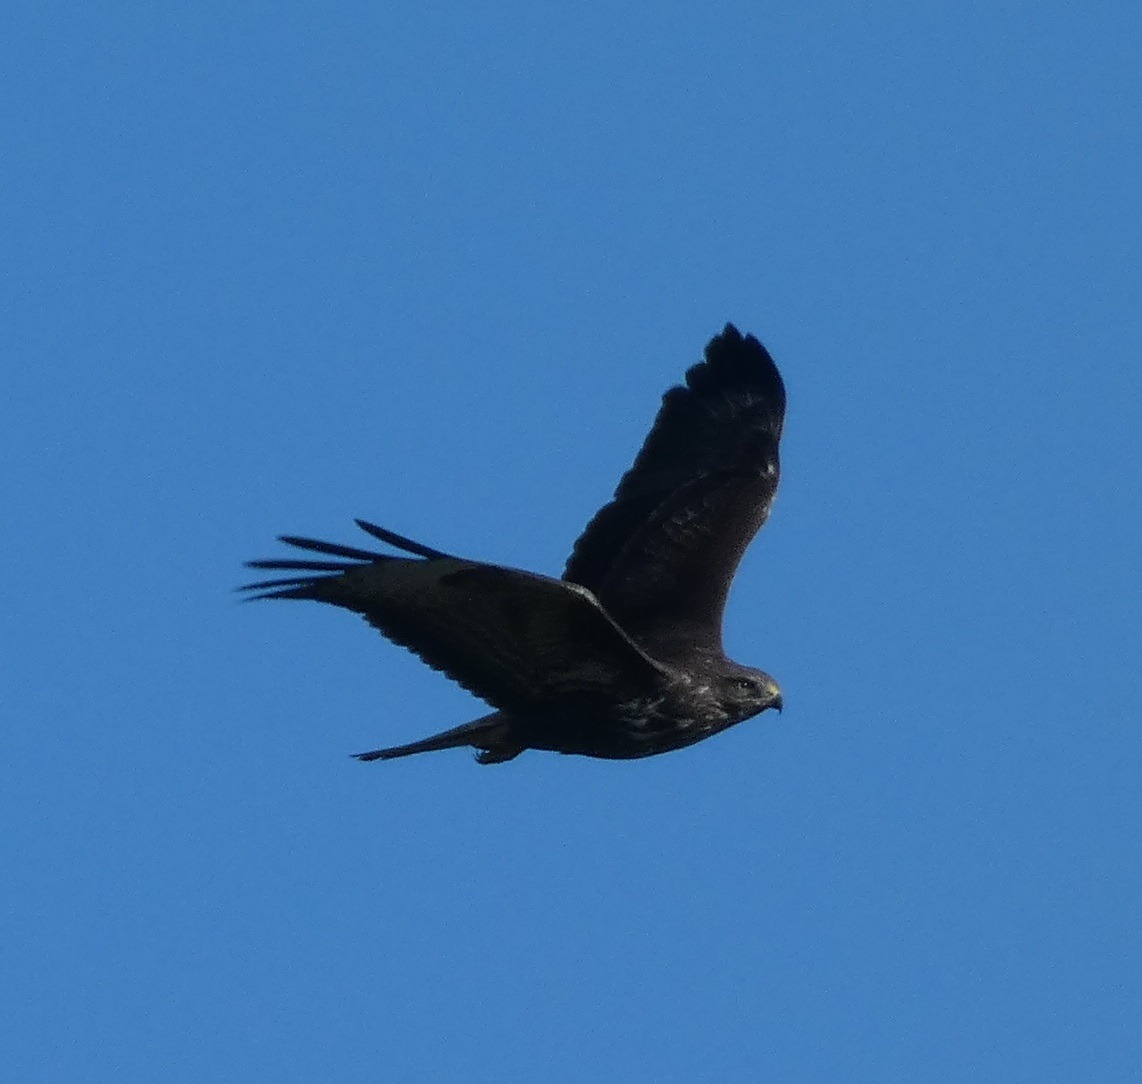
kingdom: Animalia
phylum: Chordata
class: Aves
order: Accipitriformes
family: Accipitridae
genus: Buteo
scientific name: Buteo buteo
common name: Musvåge
